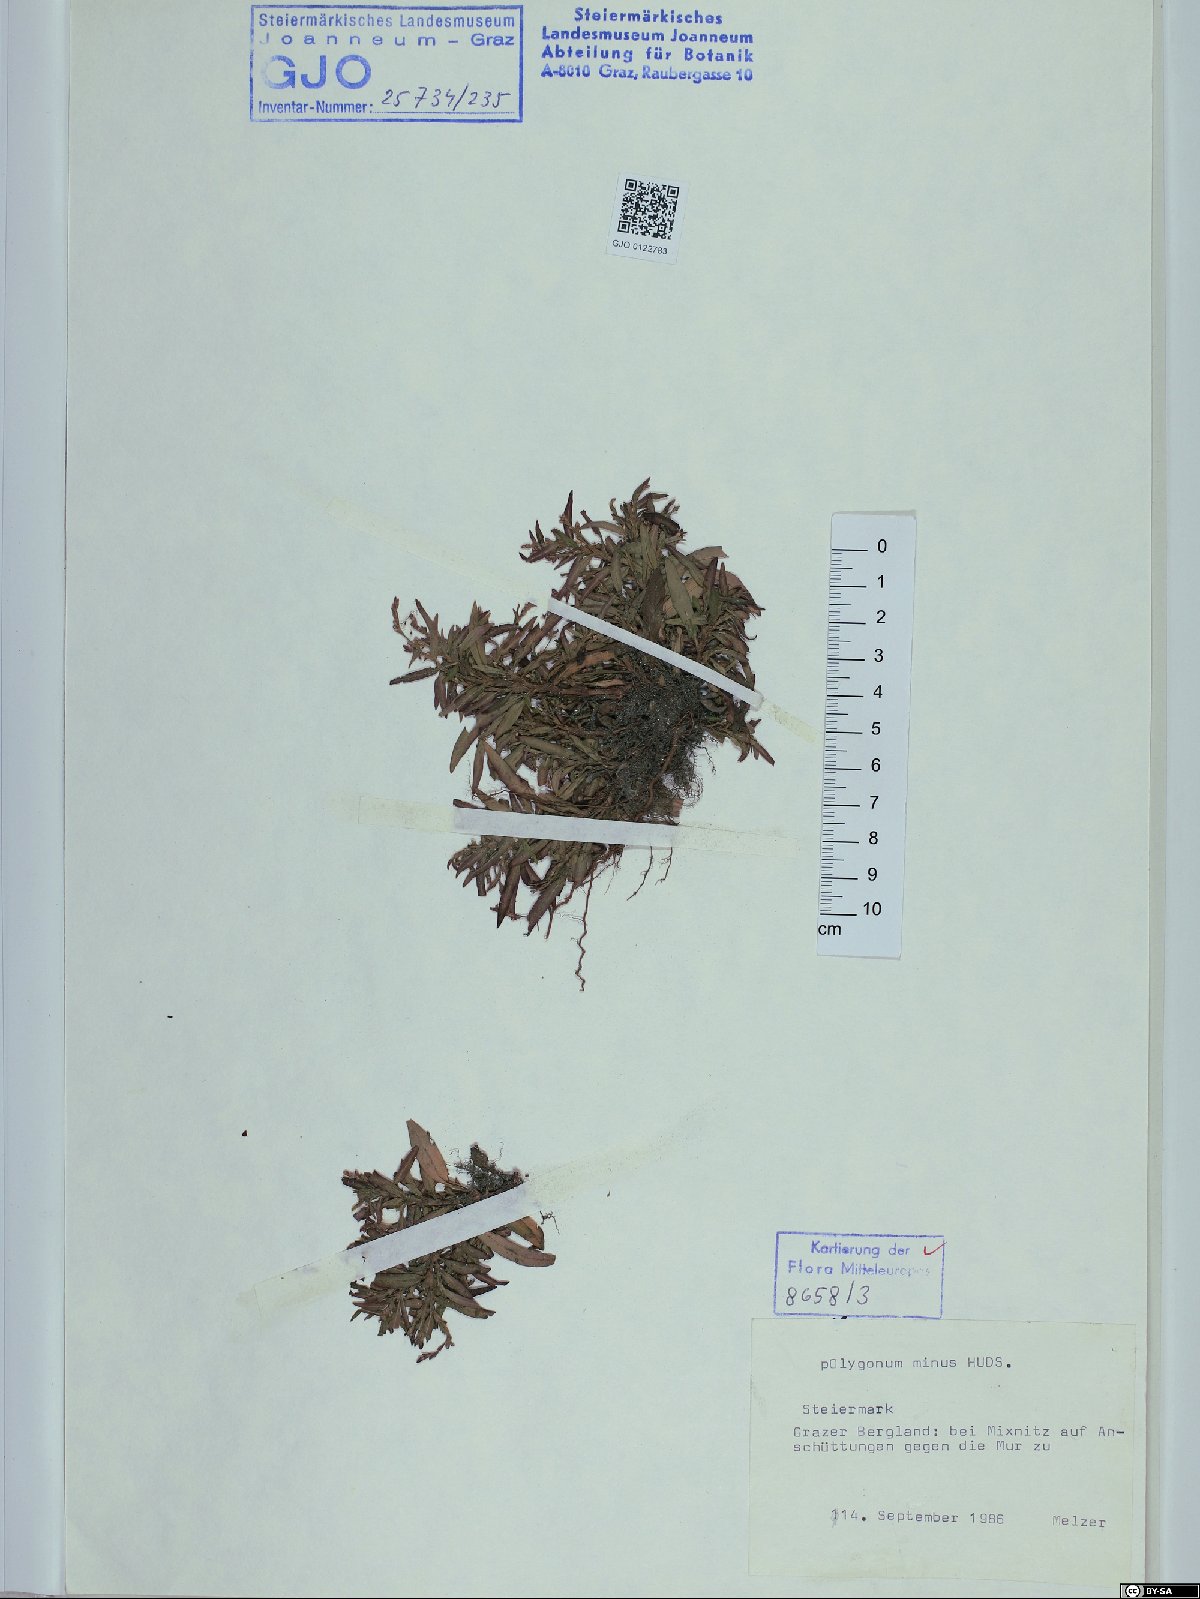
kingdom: Plantae
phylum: Tracheophyta
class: Magnoliopsida
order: Caryophyllales
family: Polygonaceae
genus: Persicaria
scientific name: Persicaria minor
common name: Small water-pepper
